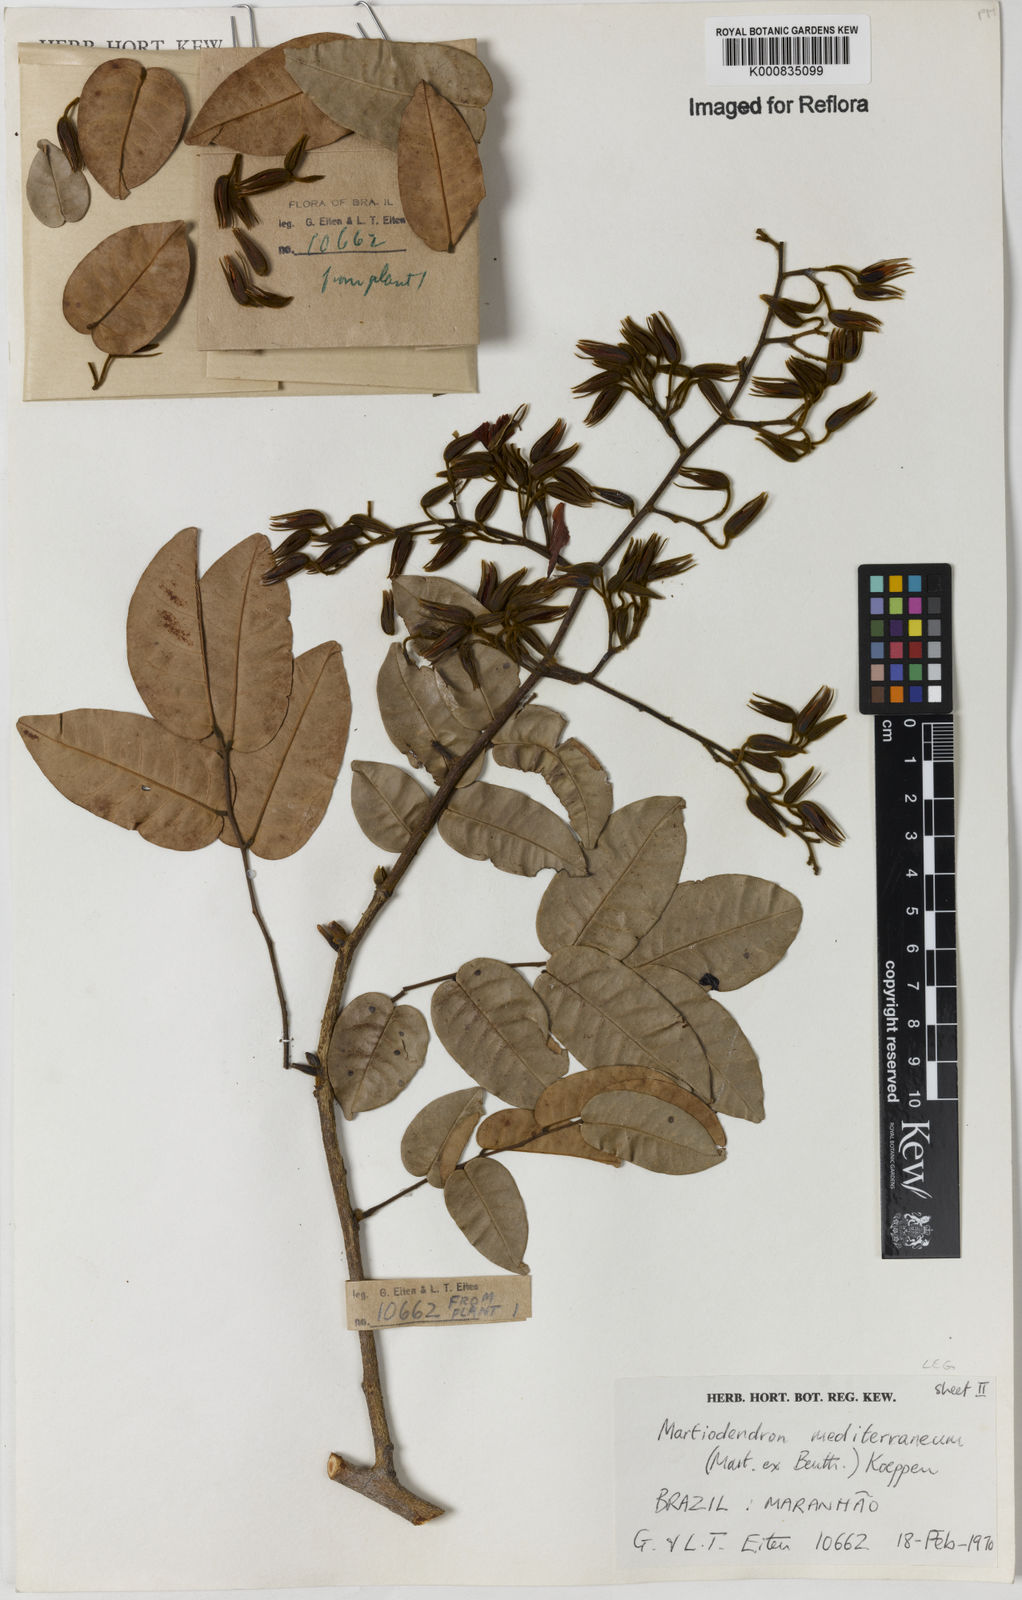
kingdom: Plantae
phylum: Tracheophyta
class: Magnoliopsida
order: Fabales
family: Fabaceae
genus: Martiodendron
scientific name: Martiodendron
